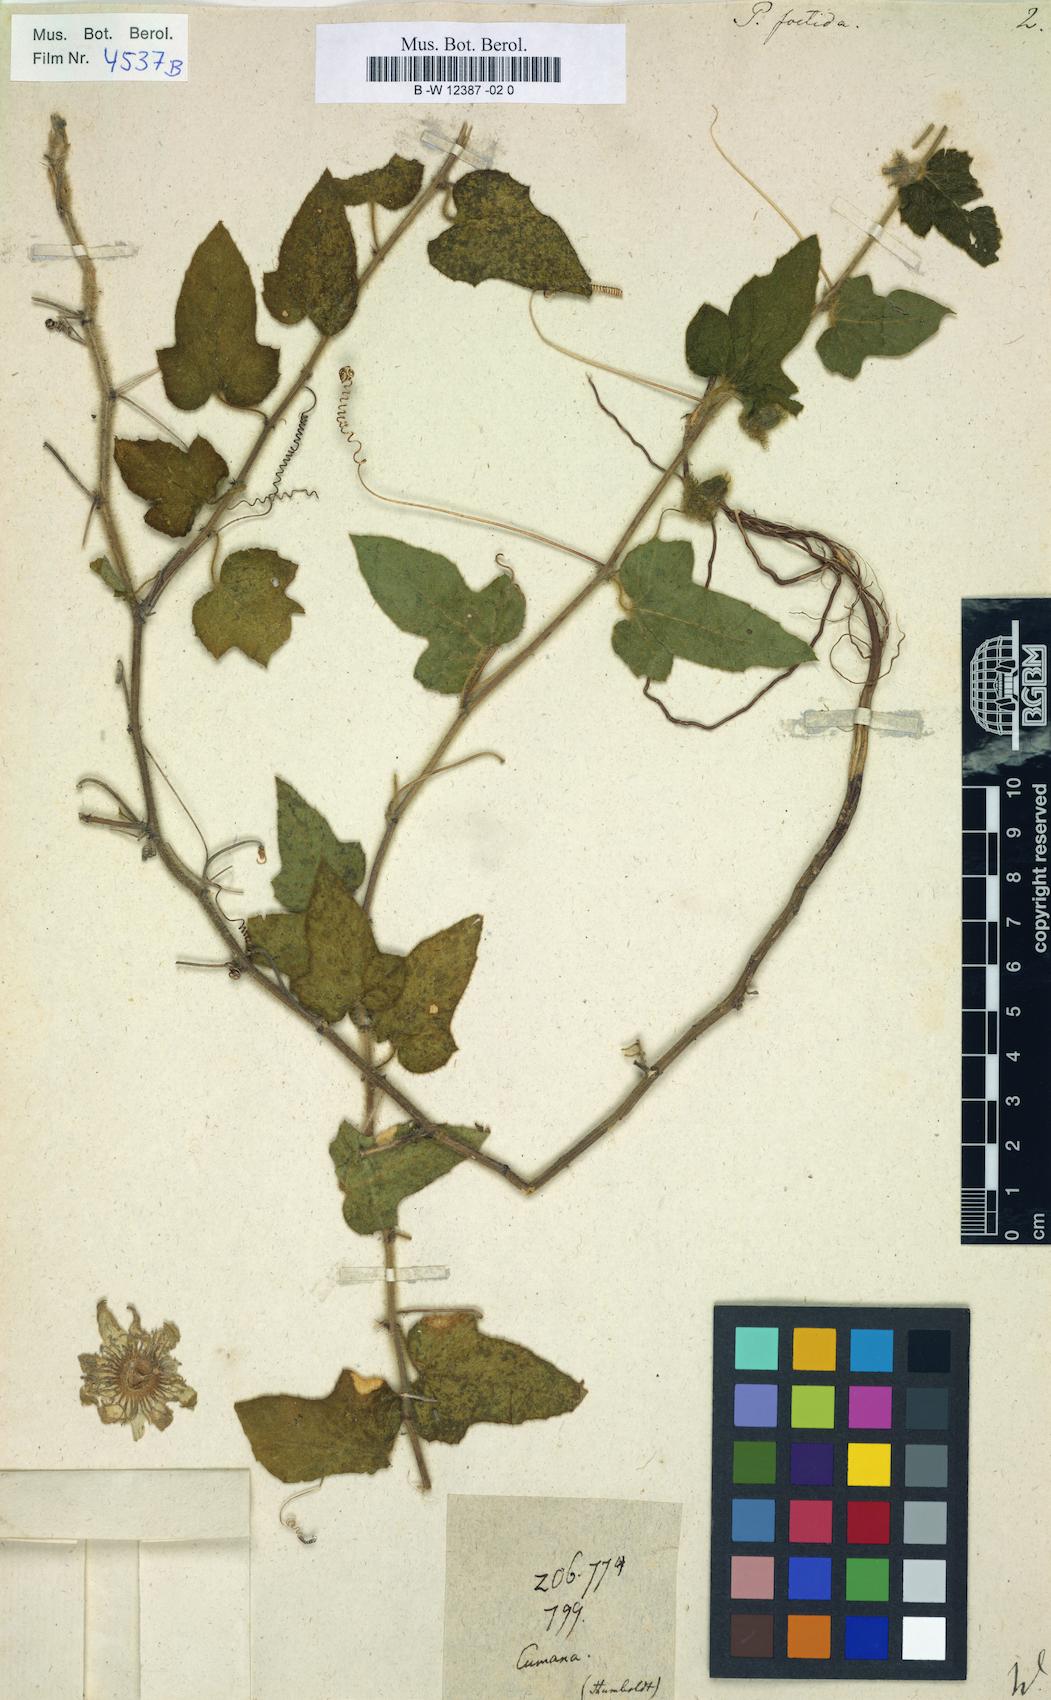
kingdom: Plantae
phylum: Tracheophyta
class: Magnoliopsida
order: Malpighiales
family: Passifloraceae
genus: Passiflora
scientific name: Passiflora foetida
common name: Fetid passionflower
